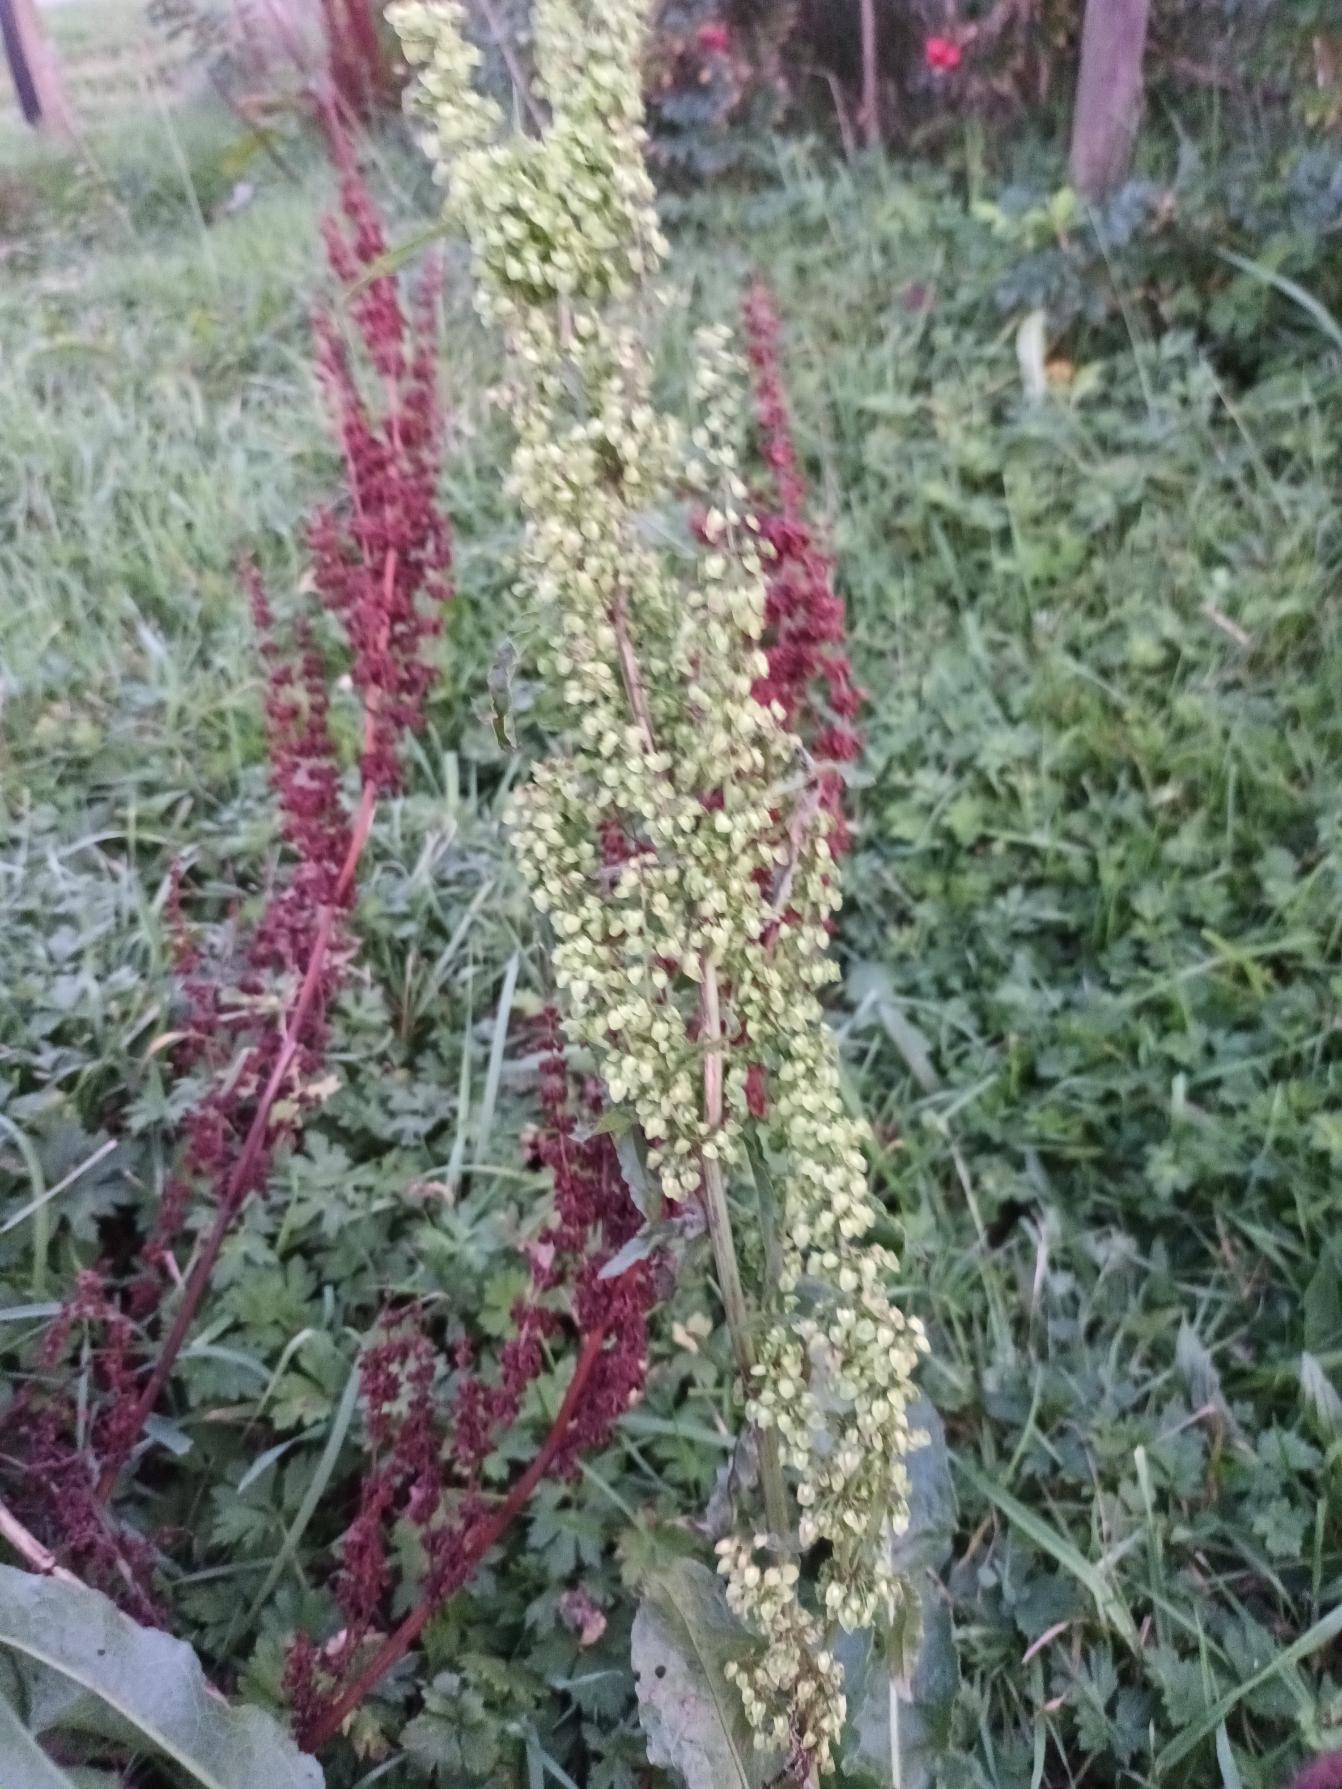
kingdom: Plantae
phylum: Tracheophyta
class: Magnoliopsida
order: Caryophyllales
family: Polygonaceae
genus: Rumex
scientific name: Rumex crispus
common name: Kruset skræppe
